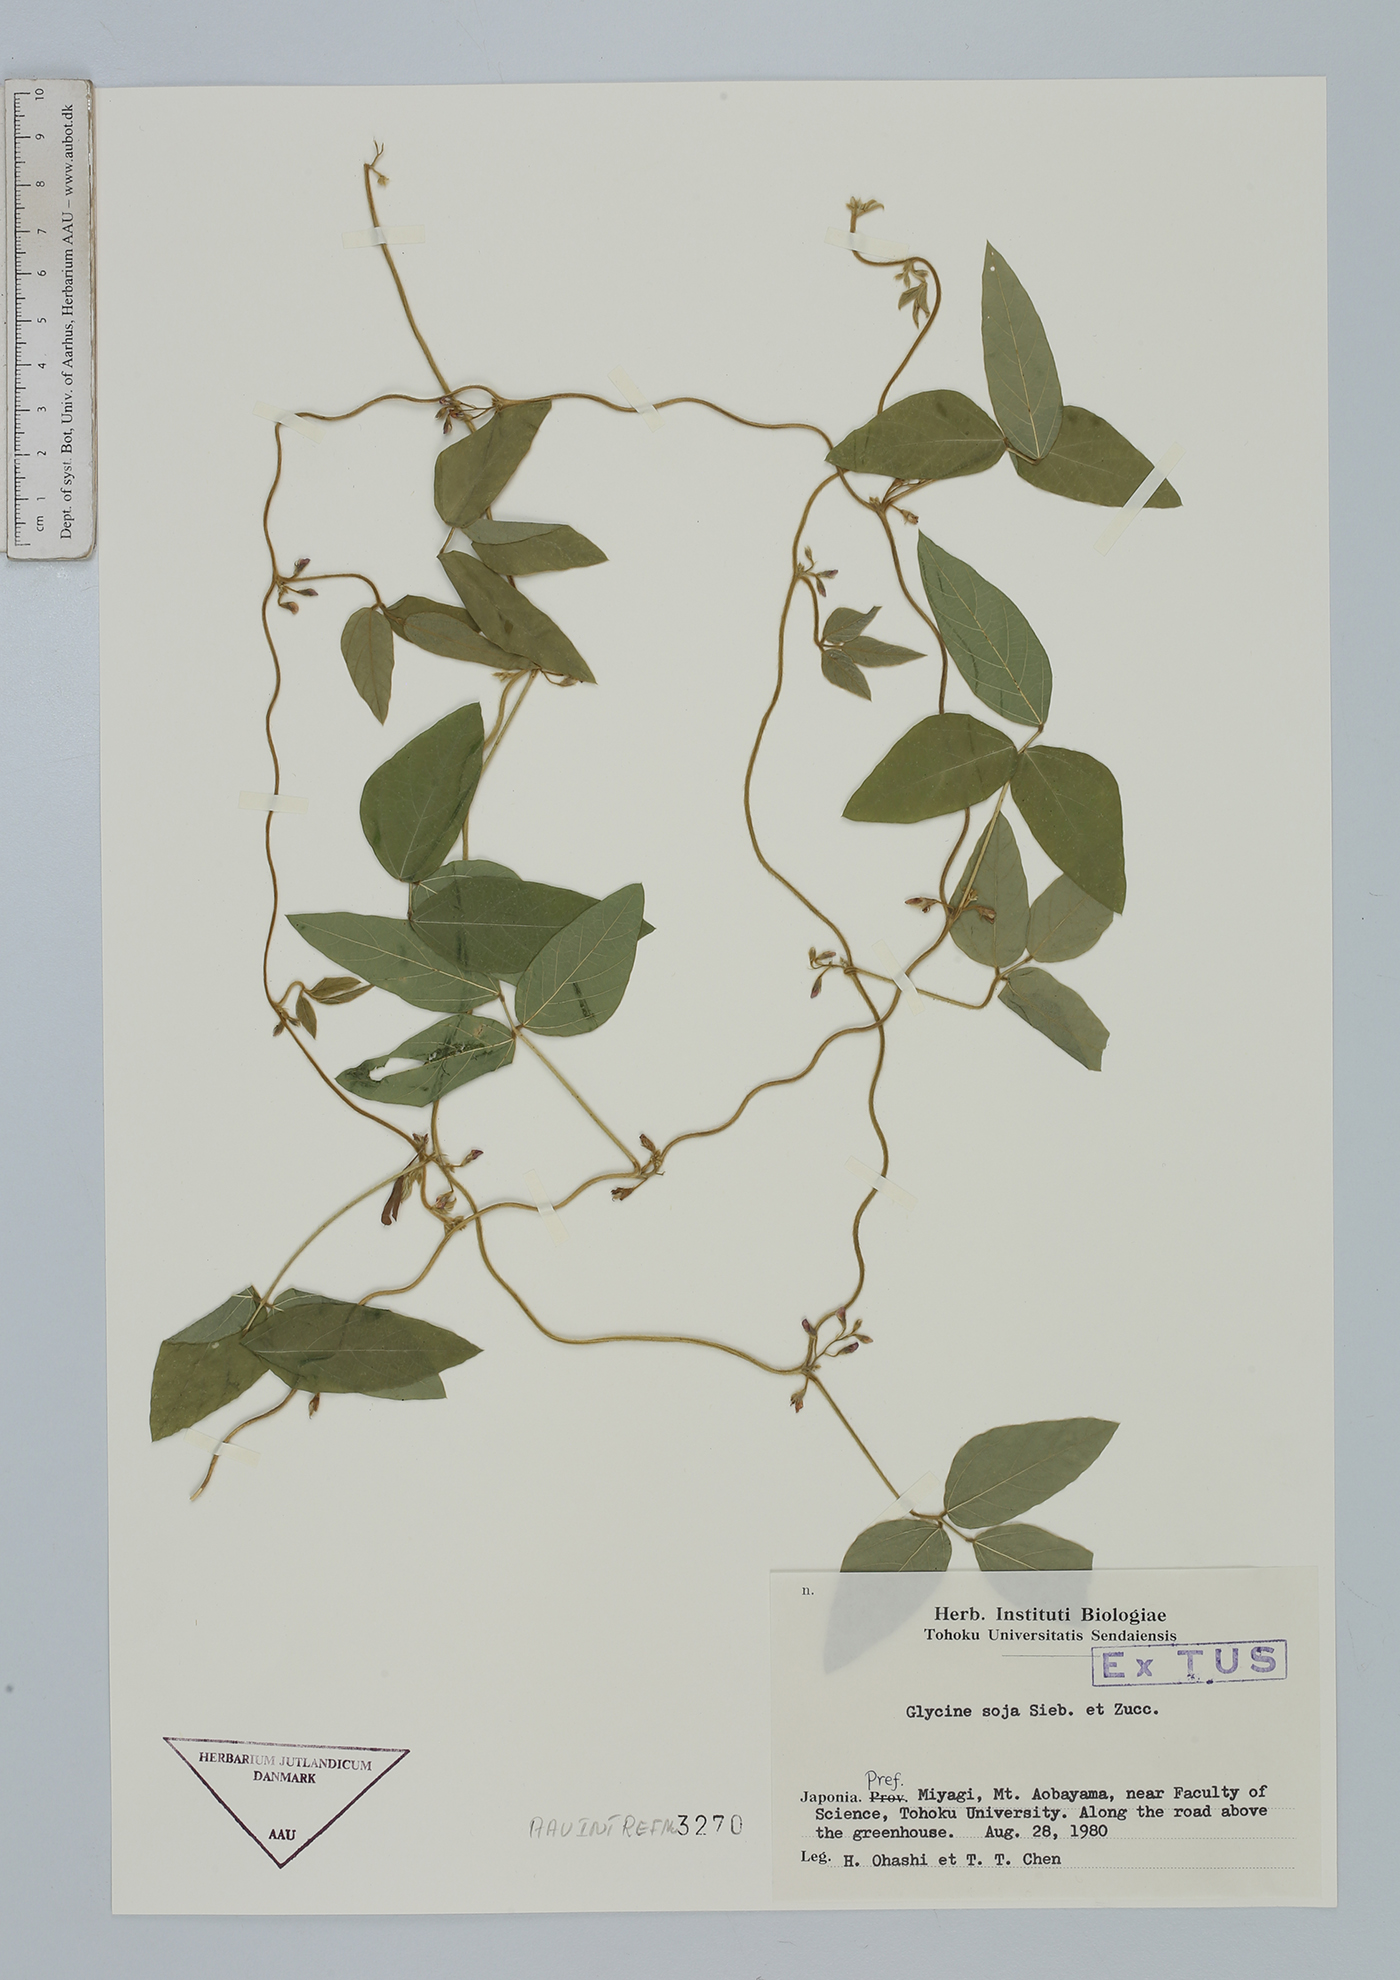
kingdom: Plantae
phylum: Tracheophyta
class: Magnoliopsida
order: Fabales
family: Fabaceae
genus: Glycine
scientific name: Glycine max
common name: Soya-bean
